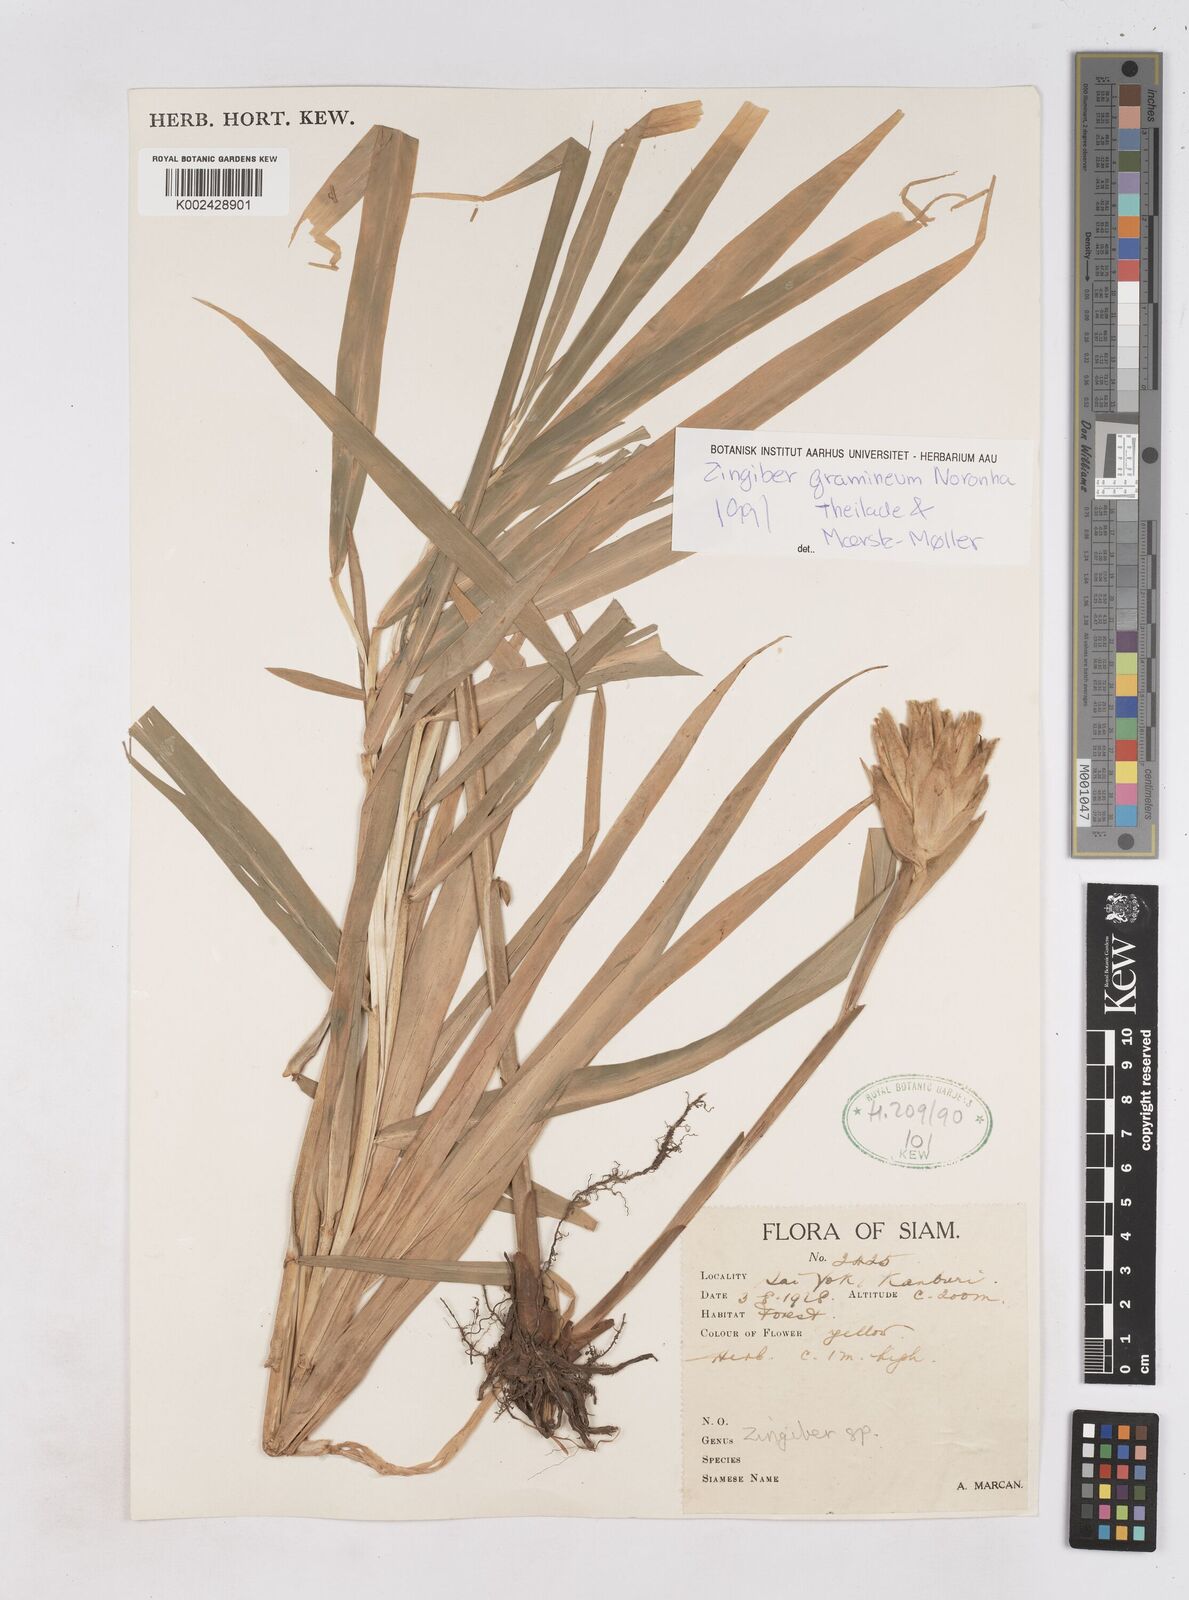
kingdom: Plantae
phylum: Tracheophyta
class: Liliopsida
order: Zingiberales
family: Zingiberaceae
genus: Zingiber
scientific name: Zingiber gramineum
